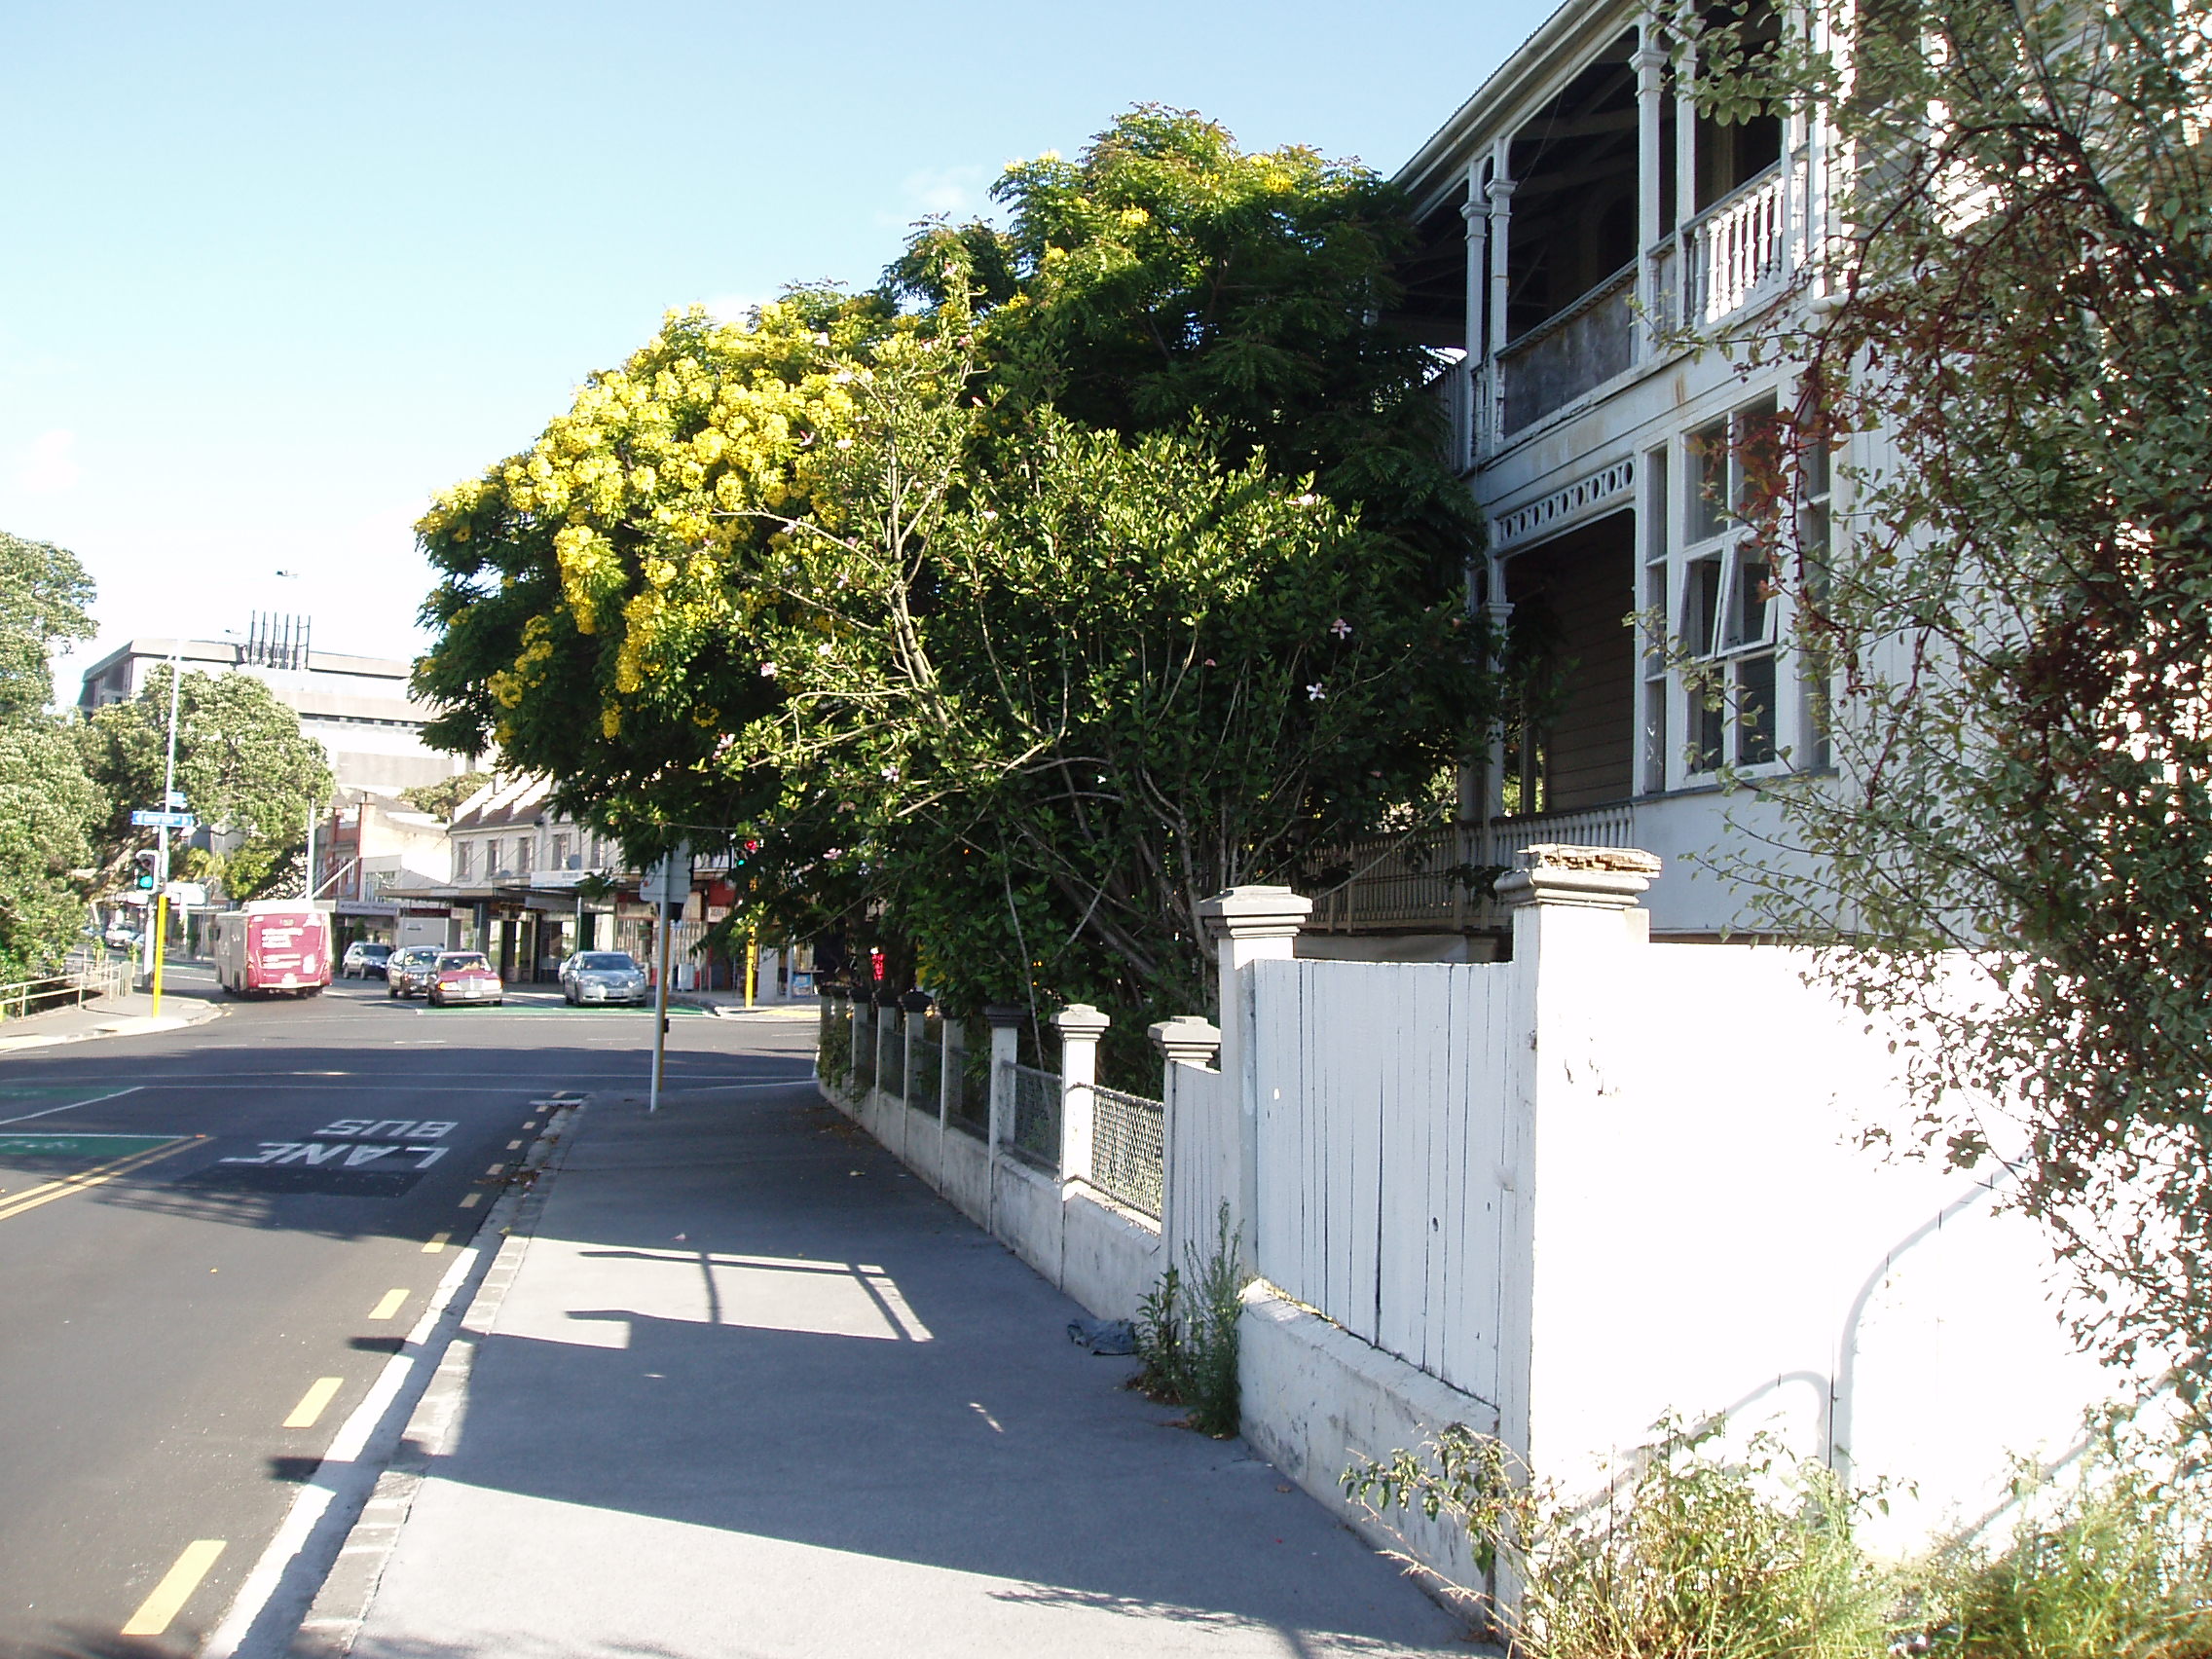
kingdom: Plantae
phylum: Tracheophyta
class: Magnoliopsida
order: Fabales
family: Fabaceae
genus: Cassia
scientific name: Cassia leptophylla
